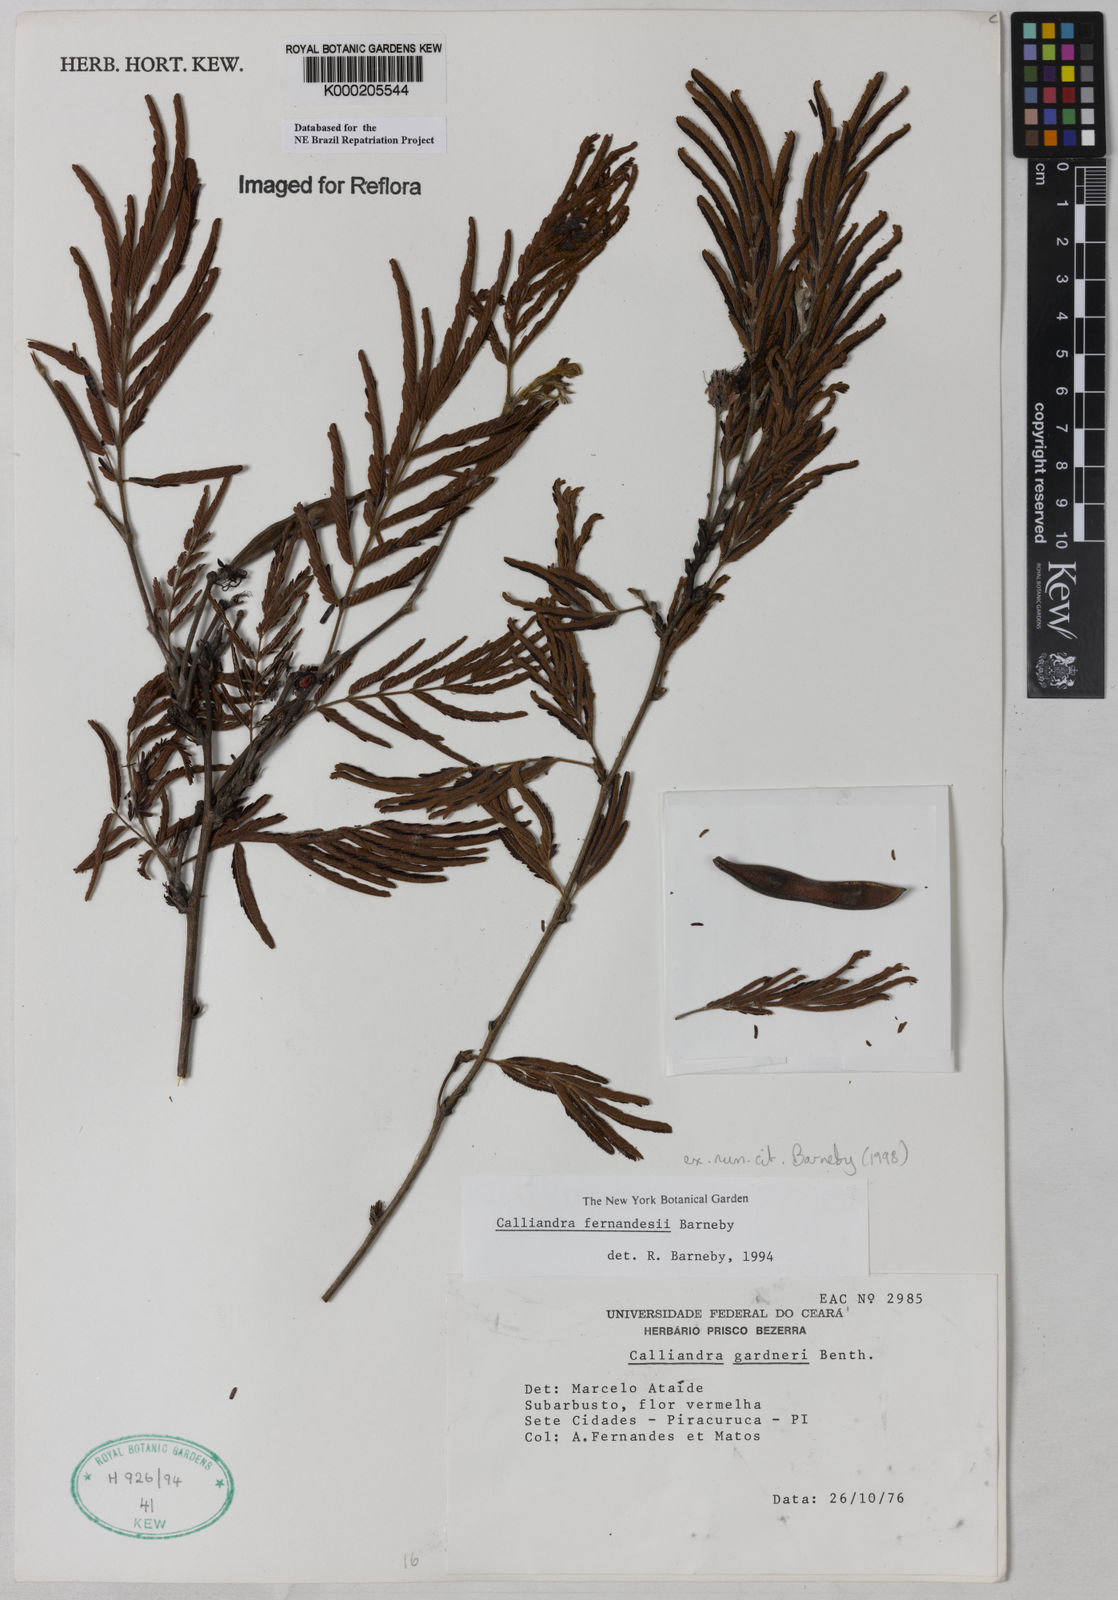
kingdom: Plantae
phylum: Tracheophyta
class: Magnoliopsida
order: Fabales
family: Fabaceae
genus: Calliandra
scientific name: Calliandra fernandesii
